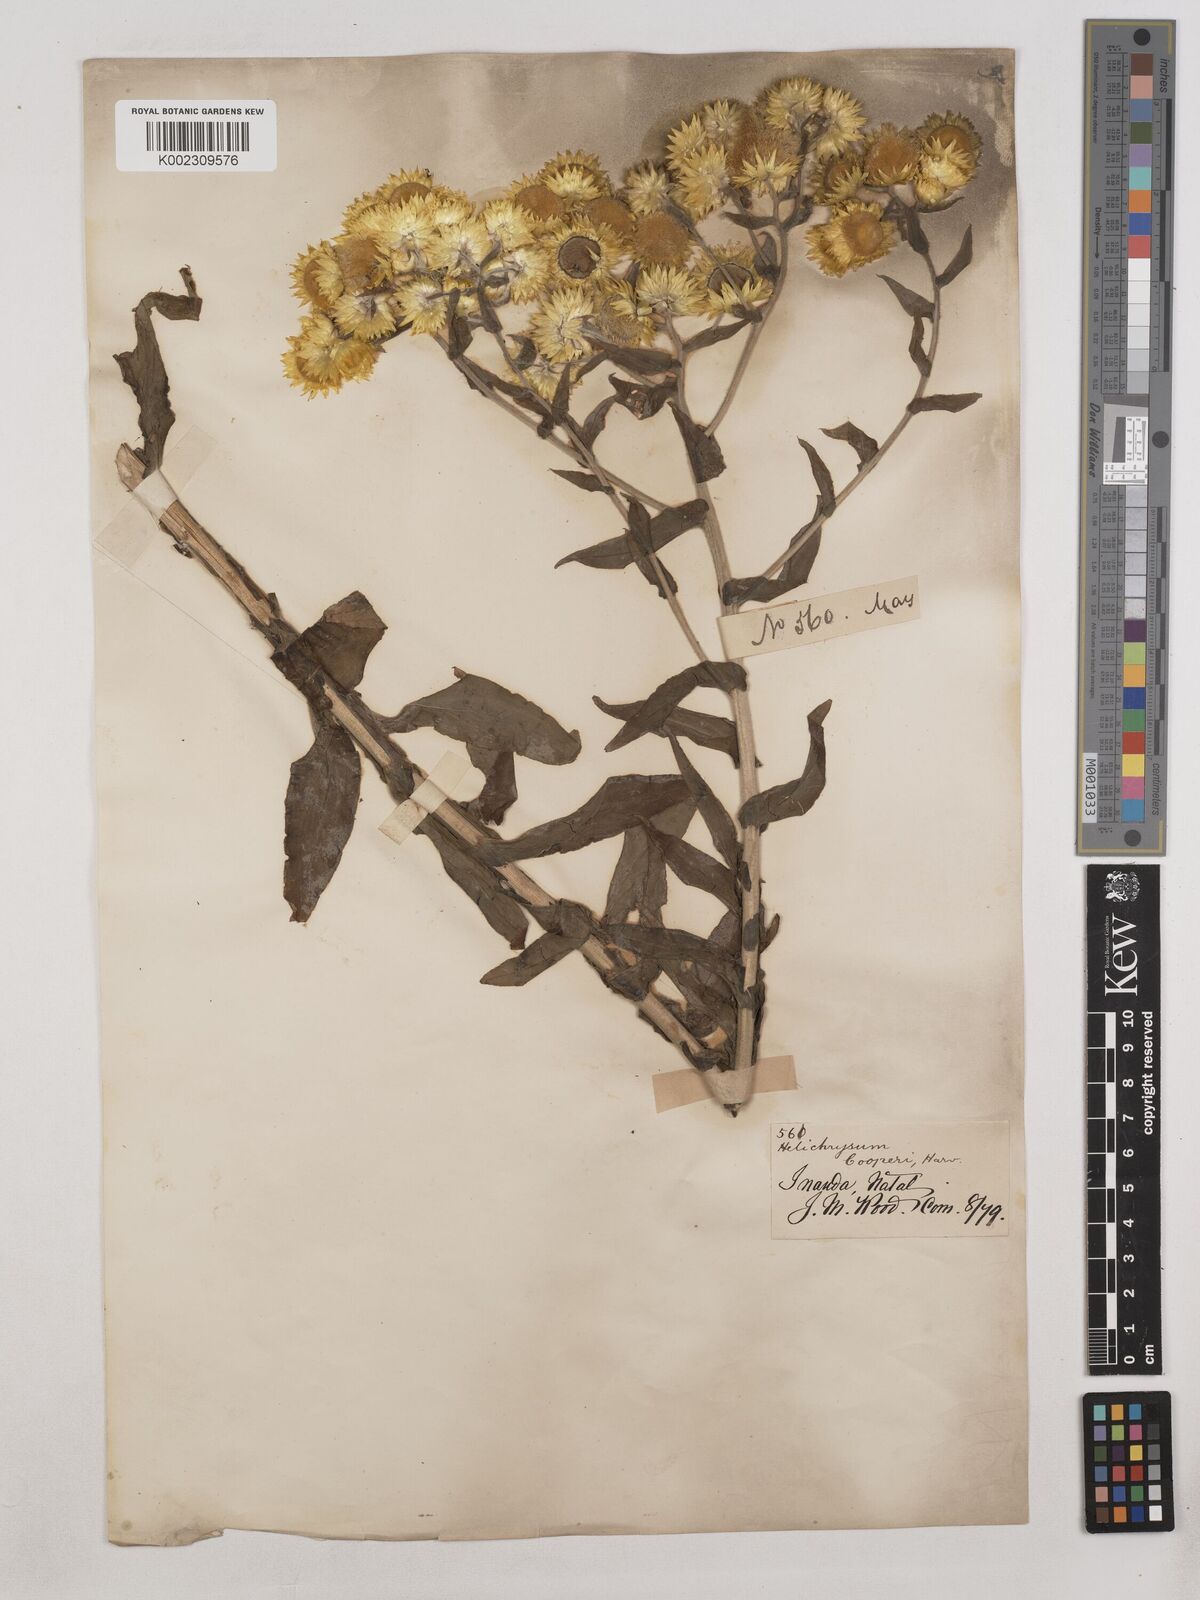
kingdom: Plantae
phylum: Tracheophyta
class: Magnoliopsida
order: Asterales
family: Asteraceae
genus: Helichrysum
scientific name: Helichrysum cooperi
